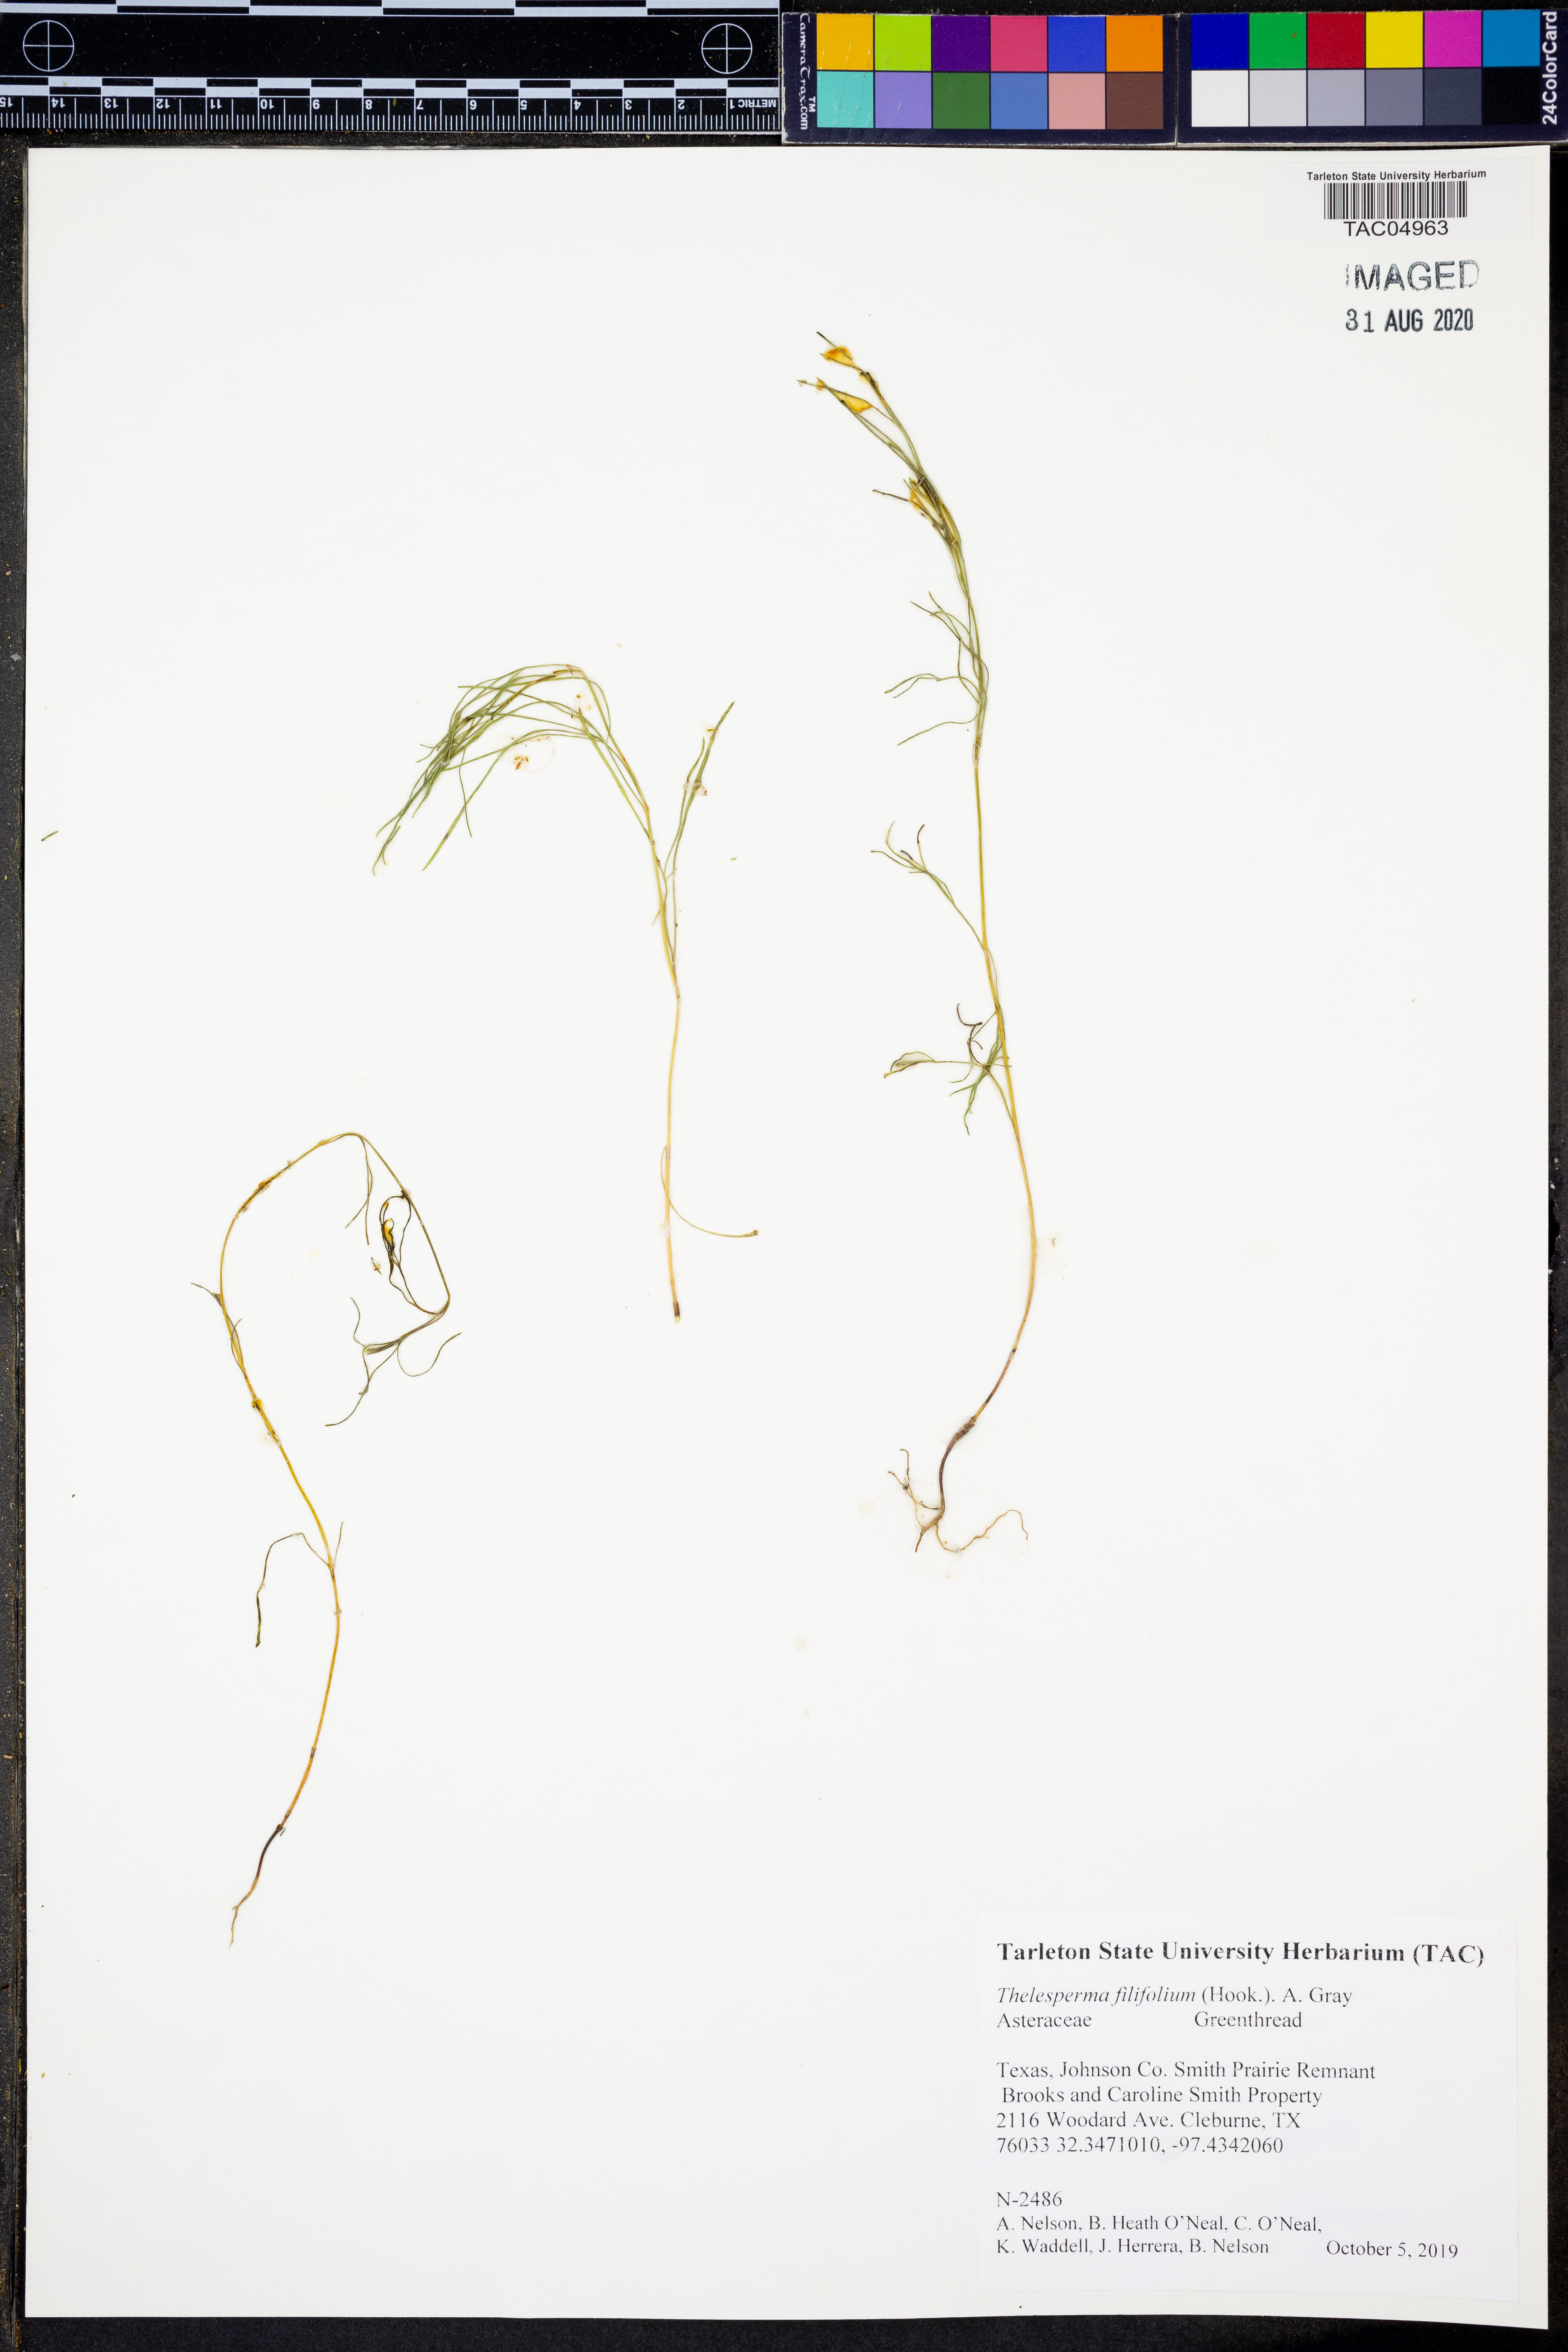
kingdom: Plantae
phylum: Tracheophyta
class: Magnoliopsida
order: Asterales
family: Asteraceae
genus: Thelesperma
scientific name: Thelesperma filifolium
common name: Stiff greenthread
